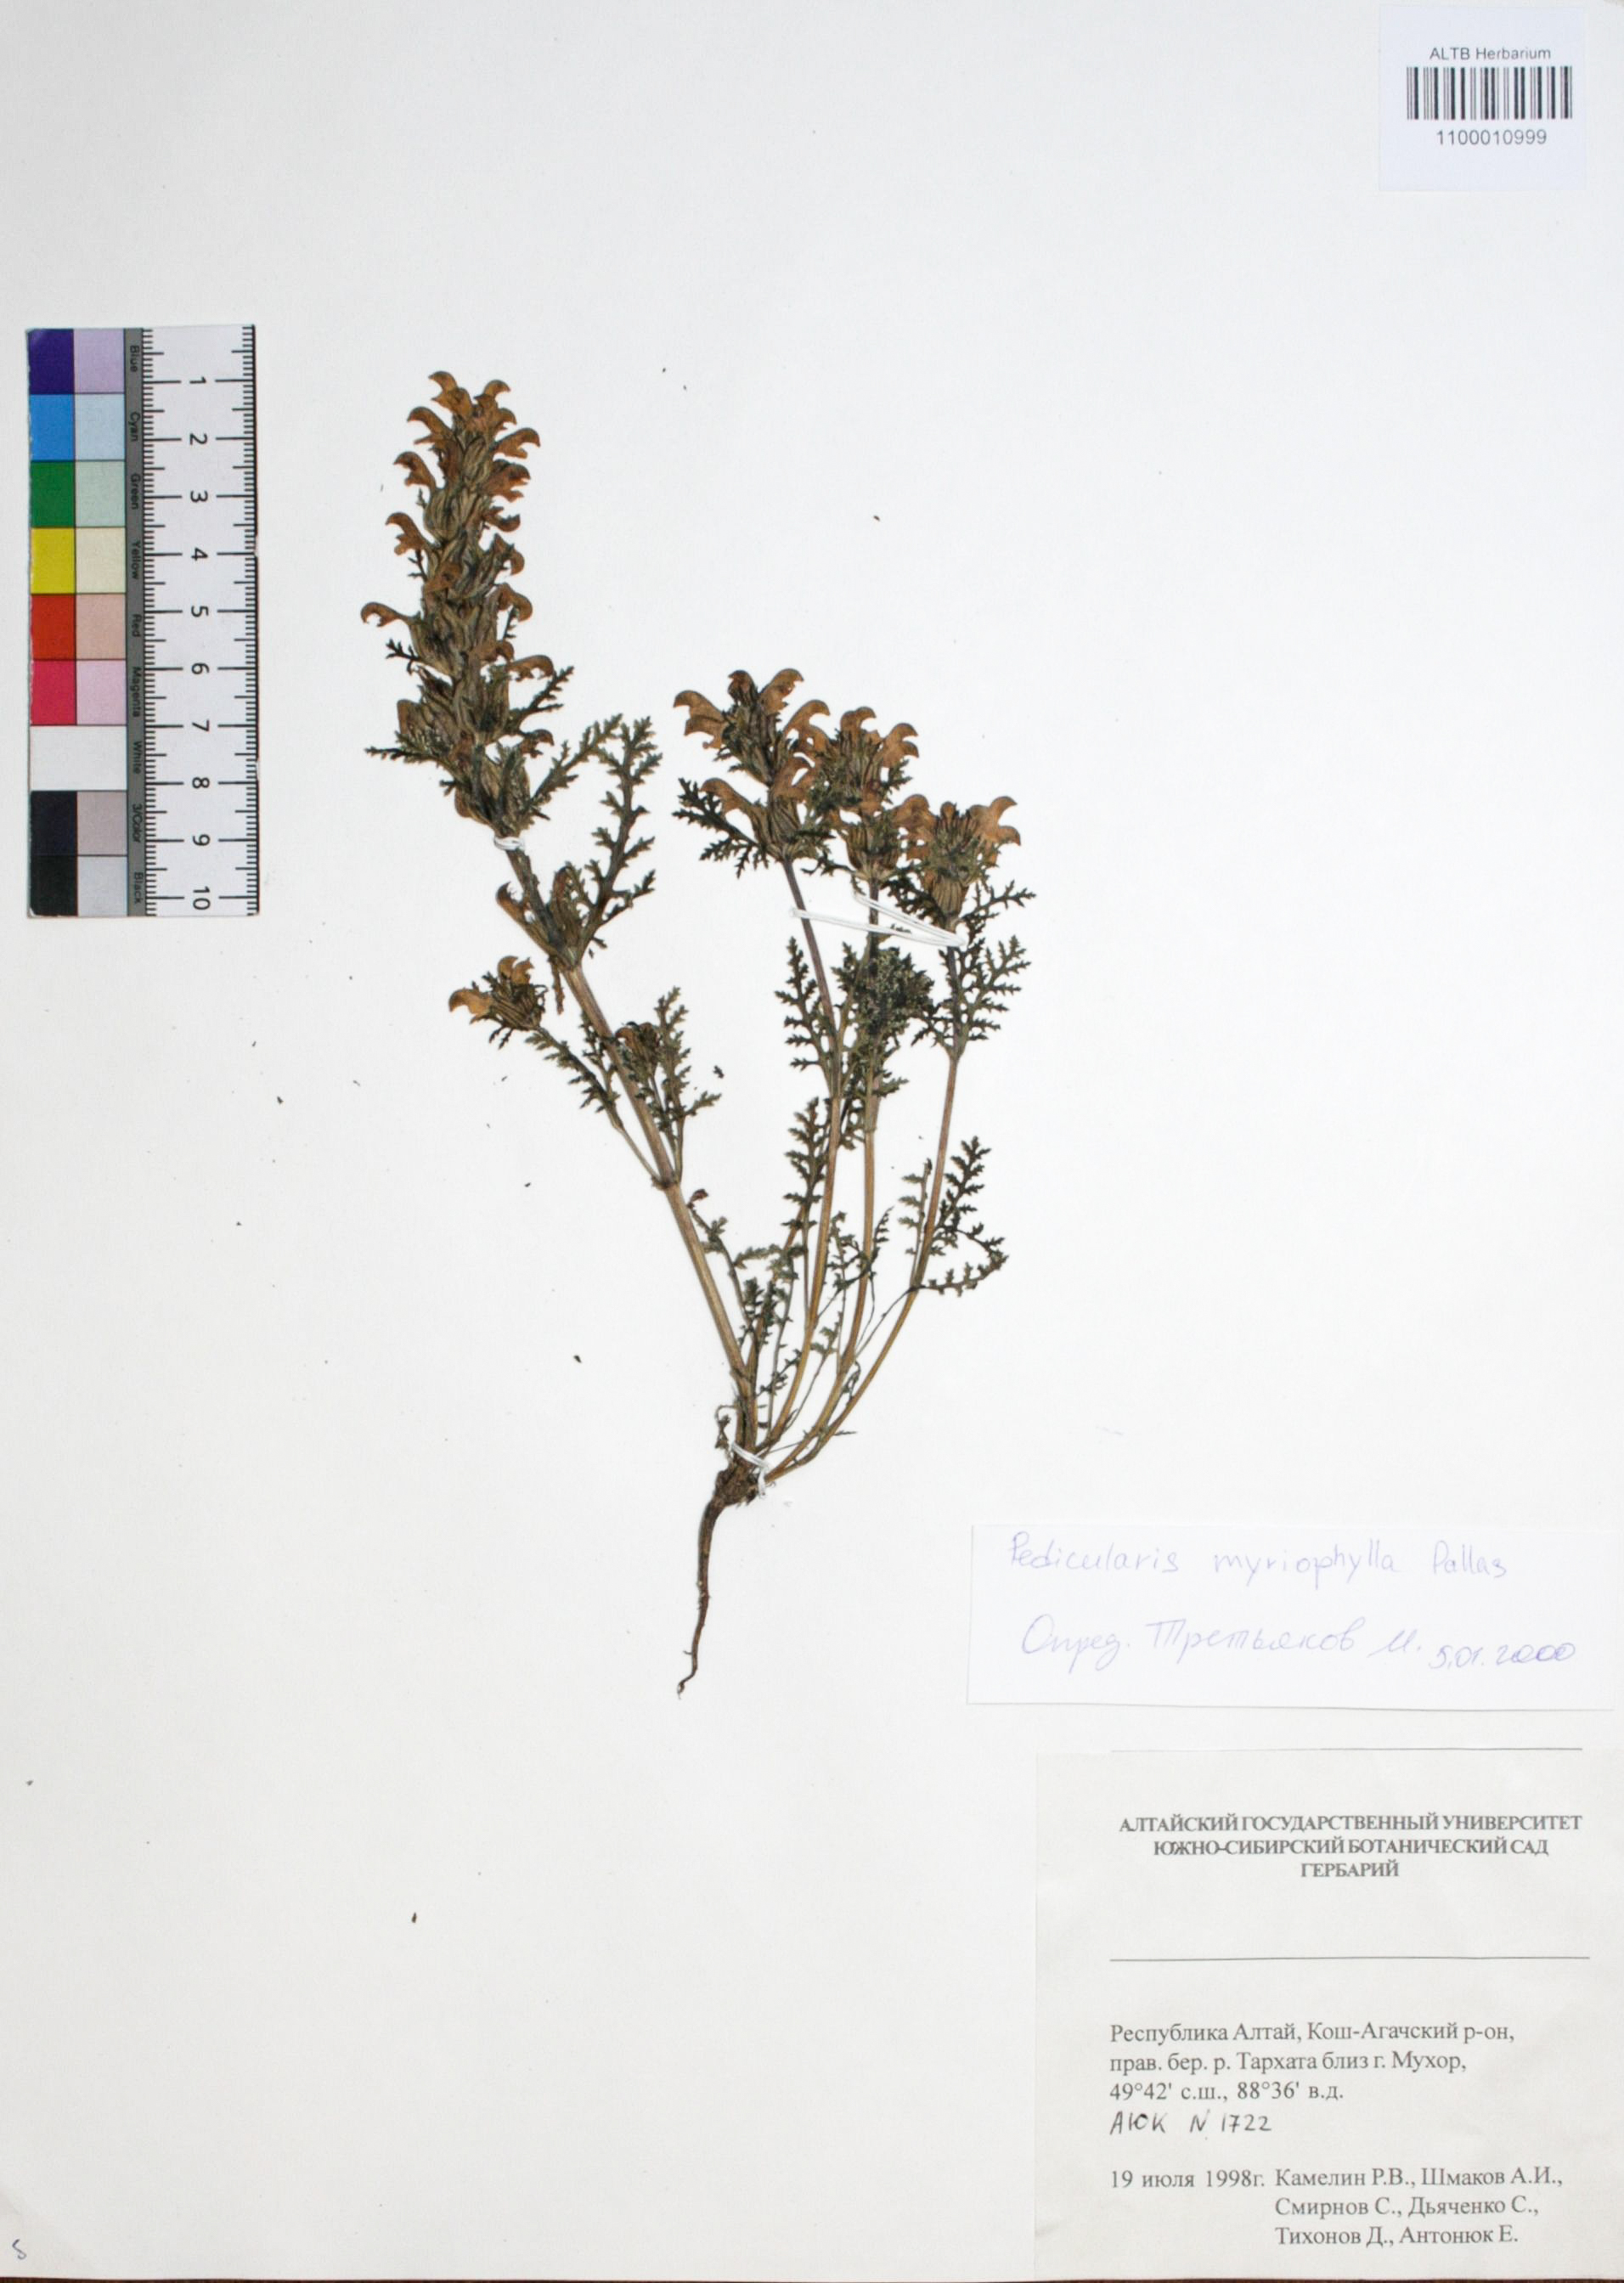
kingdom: Plantae
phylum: Tracheophyta
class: Magnoliopsida
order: Lamiales
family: Orobanchaceae
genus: Pedicularis
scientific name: Pedicularis myriophylla
